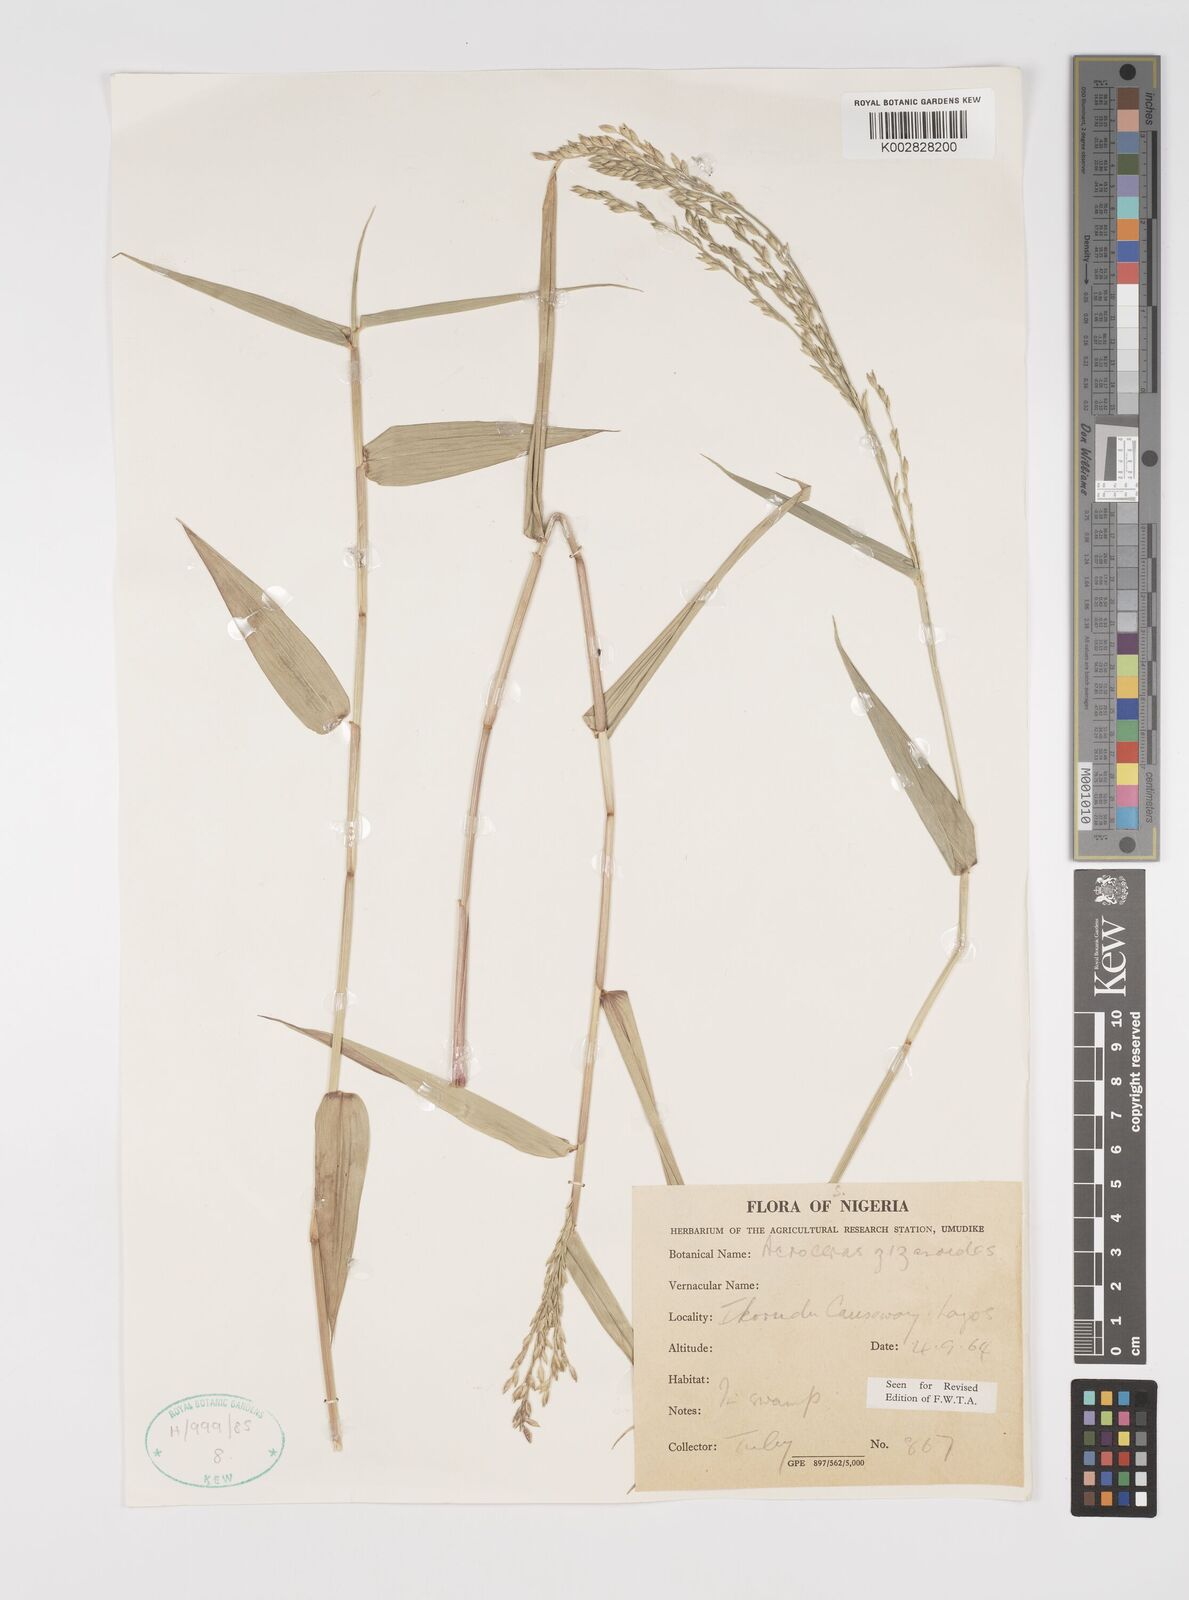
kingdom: Plantae
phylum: Tracheophyta
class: Liliopsida
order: Poales
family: Poaceae
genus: Acroceras
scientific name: Acroceras zizanioides
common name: Oat grass
